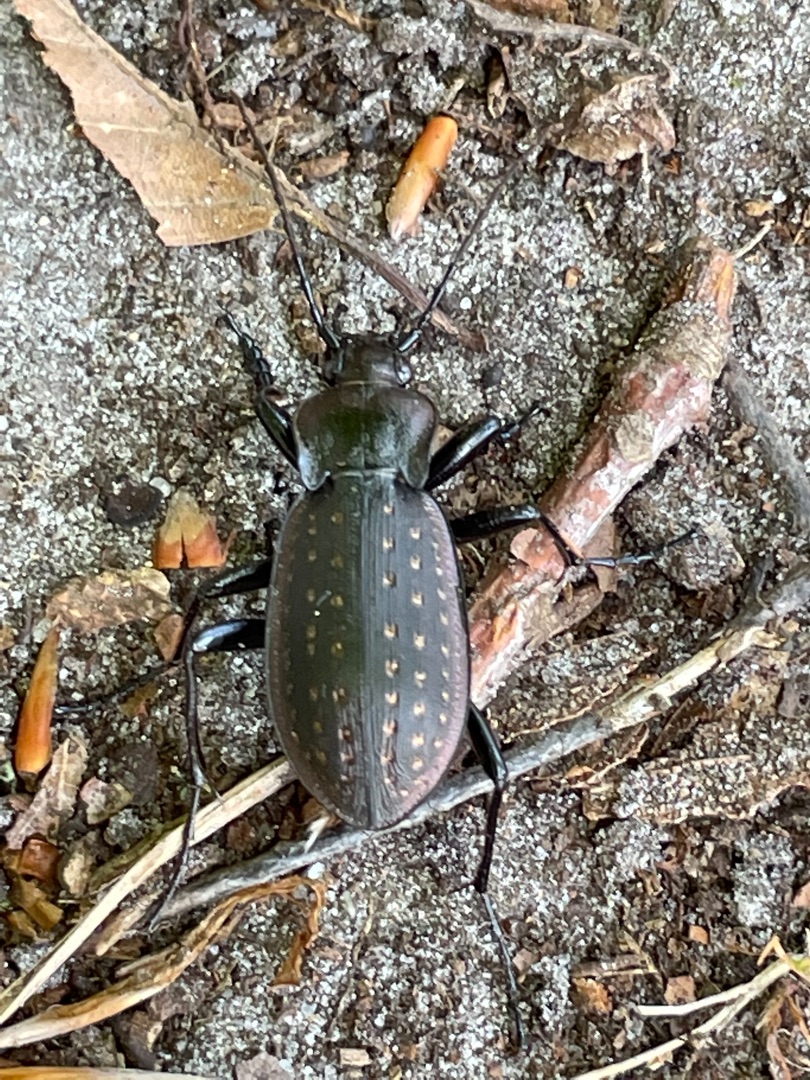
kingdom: Animalia
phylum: Arthropoda
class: Insecta
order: Coleoptera
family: Carabidae
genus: Carabus
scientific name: Carabus hortensis
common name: Guldpletløber
